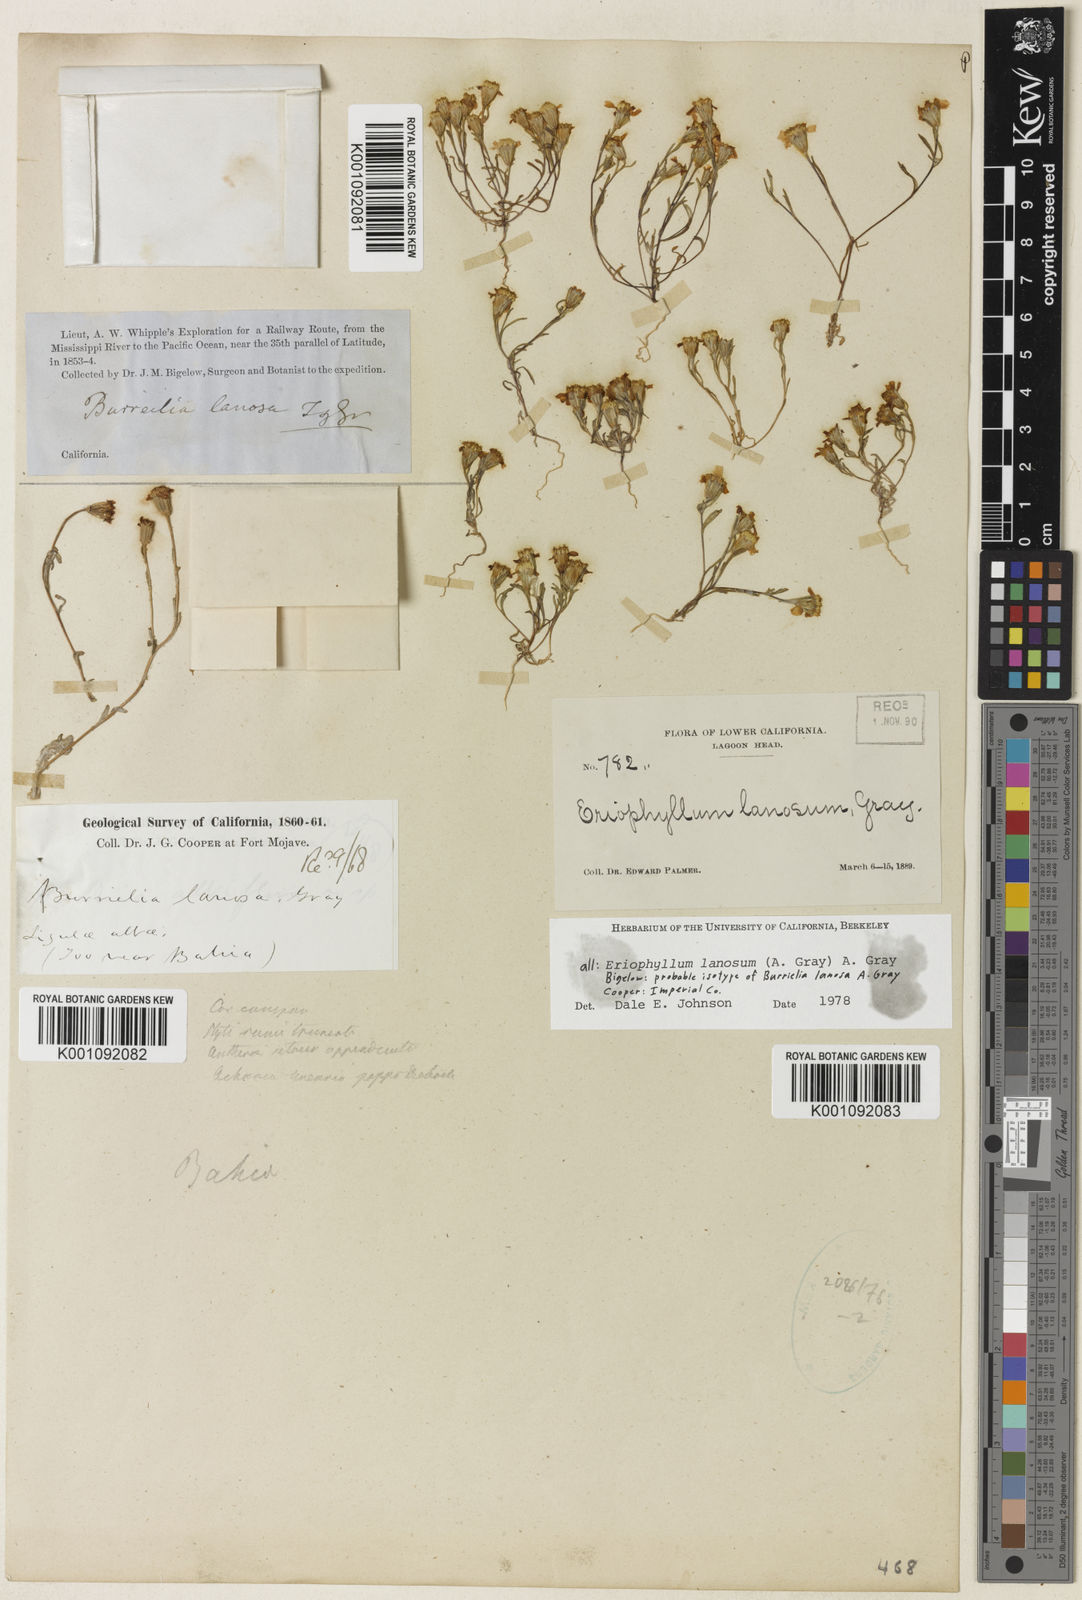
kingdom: Plantae
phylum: Tracheophyta
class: Magnoliopsida
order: Asterales
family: Asteraceae
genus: Eriophyllum
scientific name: Eriophyllum lanosum
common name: White easter-bonnets
